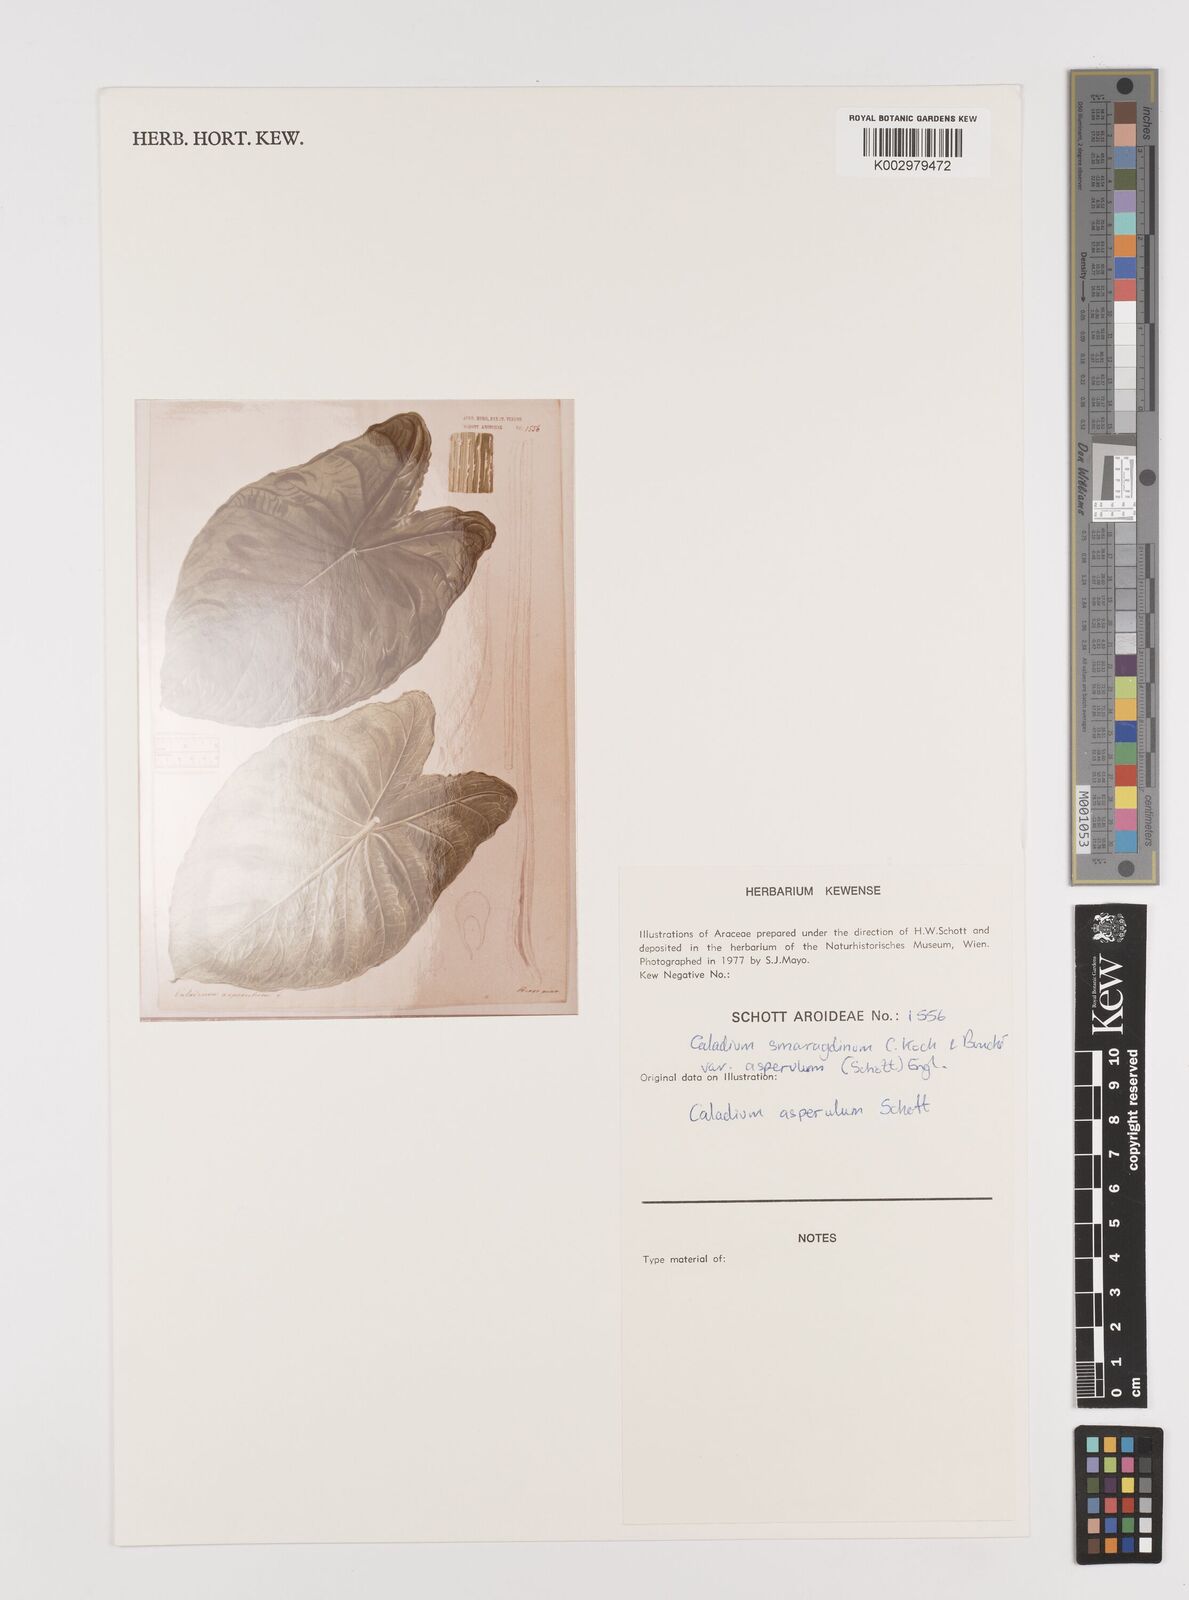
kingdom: Plantae
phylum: Tracheophyta
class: Liliopsida
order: Alismatales
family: Araceae
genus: Caladium
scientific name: Caladium smaragdinum
